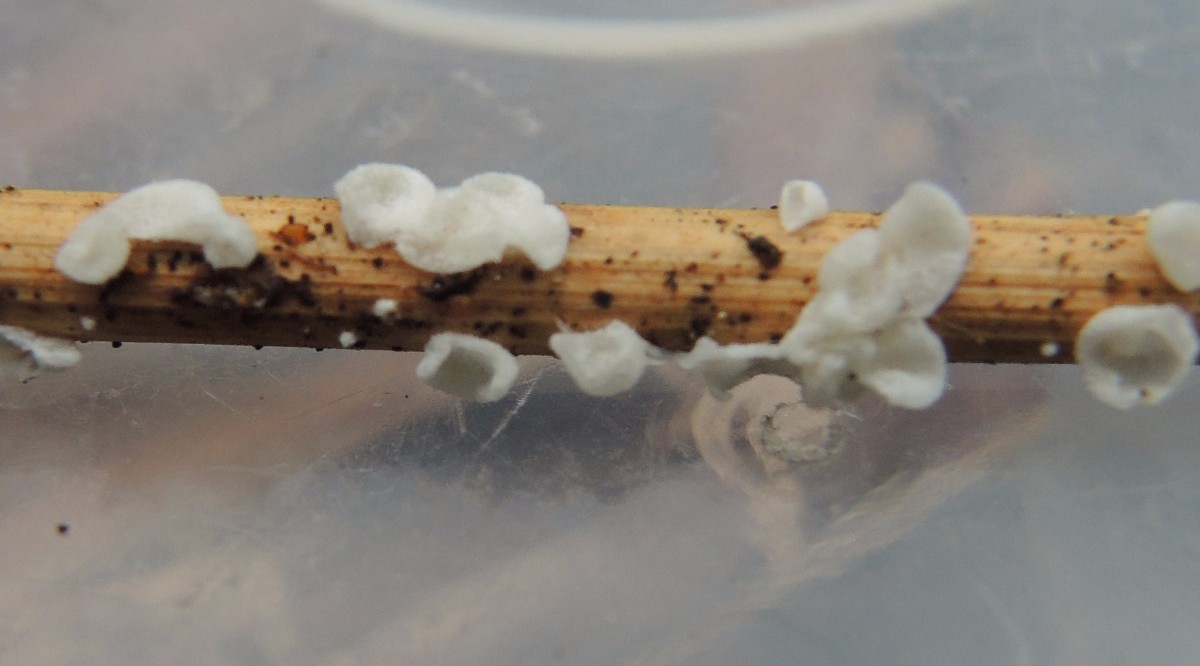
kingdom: Fungi
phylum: Basidiomycota
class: Agaricomycetes
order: Agaricales
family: Marasmiaceae
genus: Calyptella
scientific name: Calyptella
